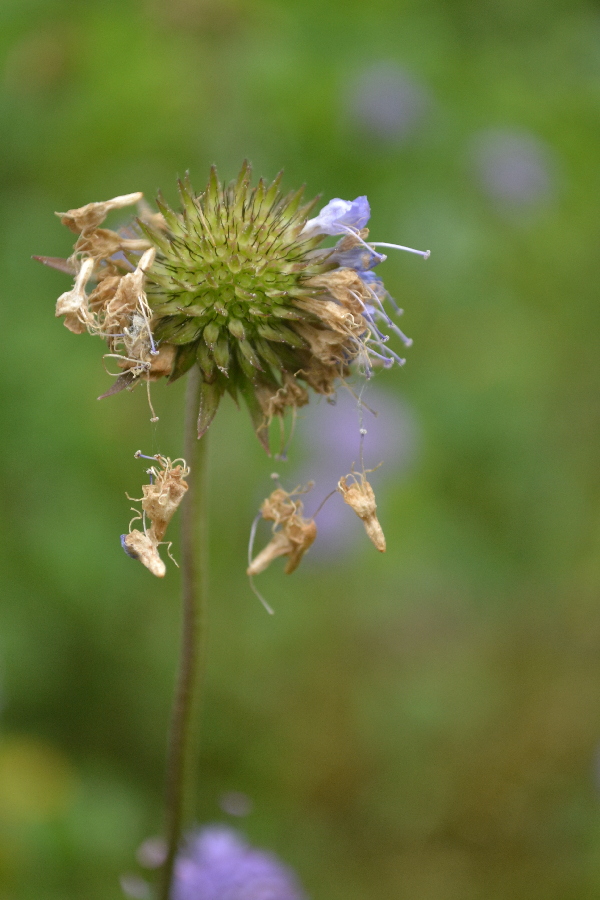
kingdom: Plantae
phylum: Tracheophyta
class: Magnoliopsida
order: Dipsacales
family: Caprifoliaceae
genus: Succisa
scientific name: Succisa pratensis
